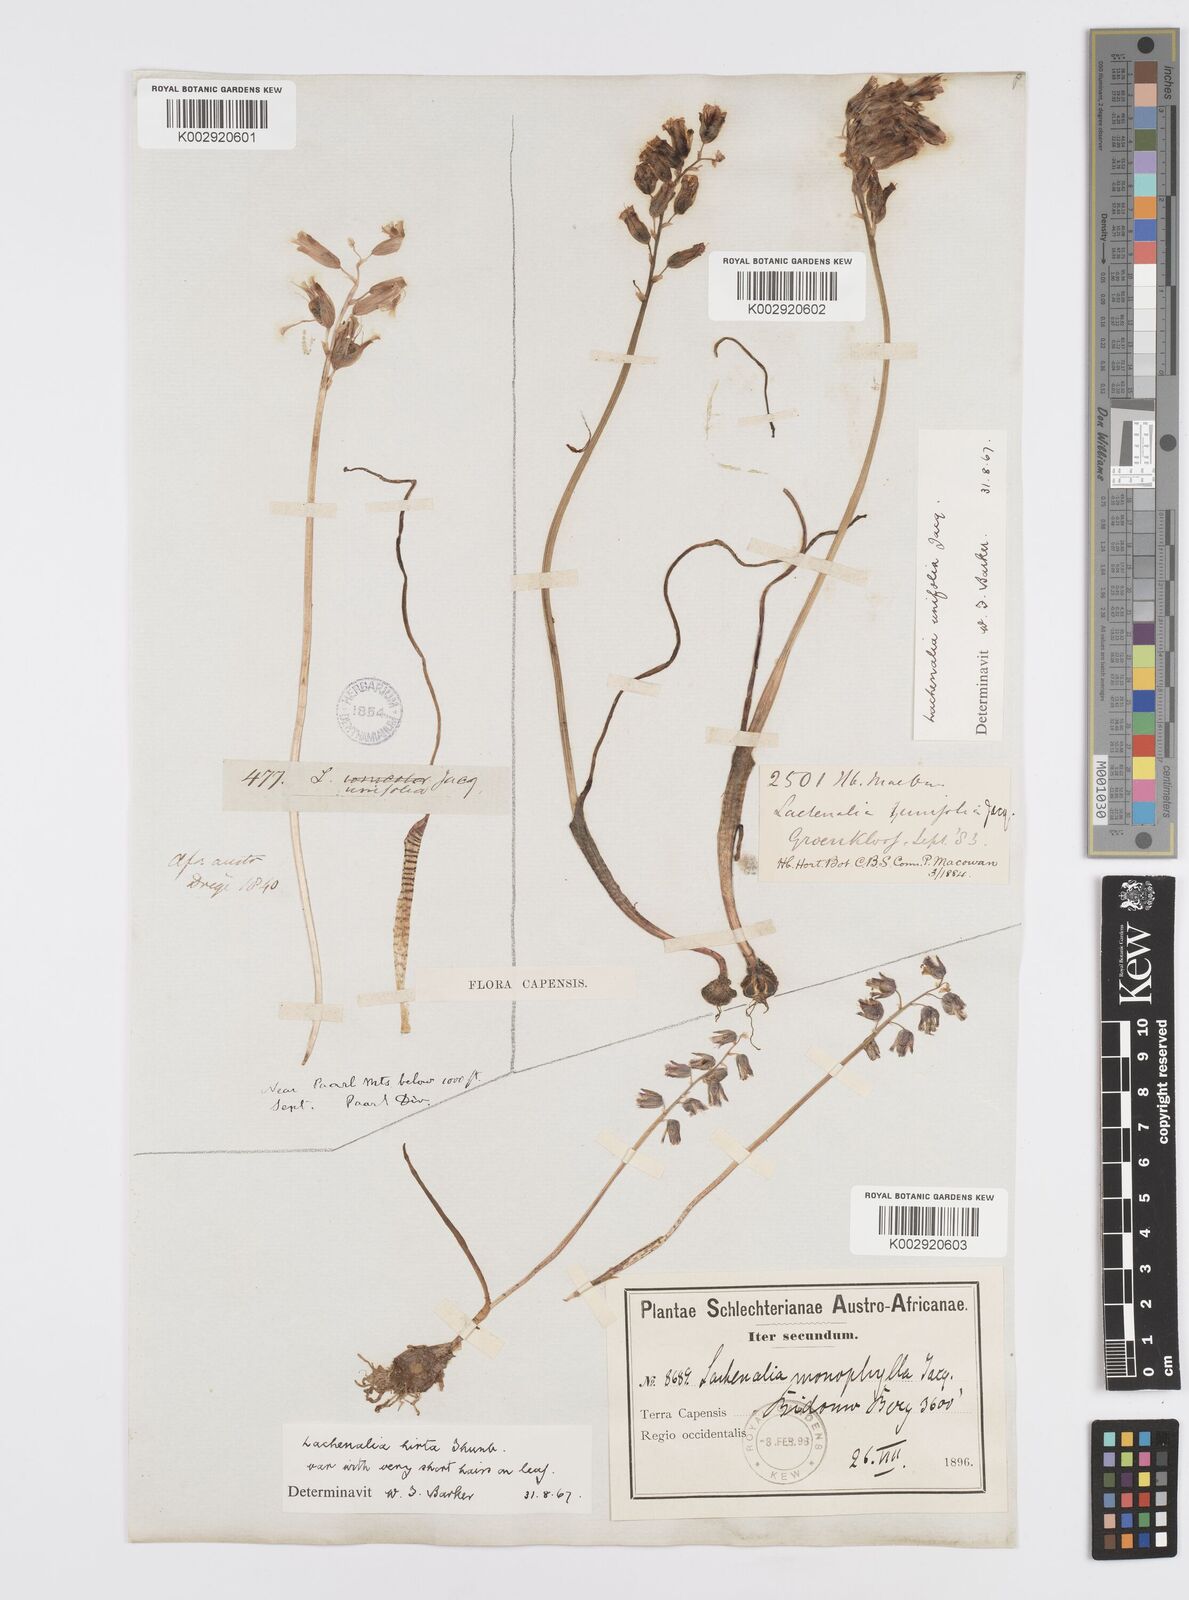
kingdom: Plantae
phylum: Tracheophyta
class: Liliopsida
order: Asparagales
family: Asparagaceae
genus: Lachenalia
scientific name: Lachenalia unifolia
